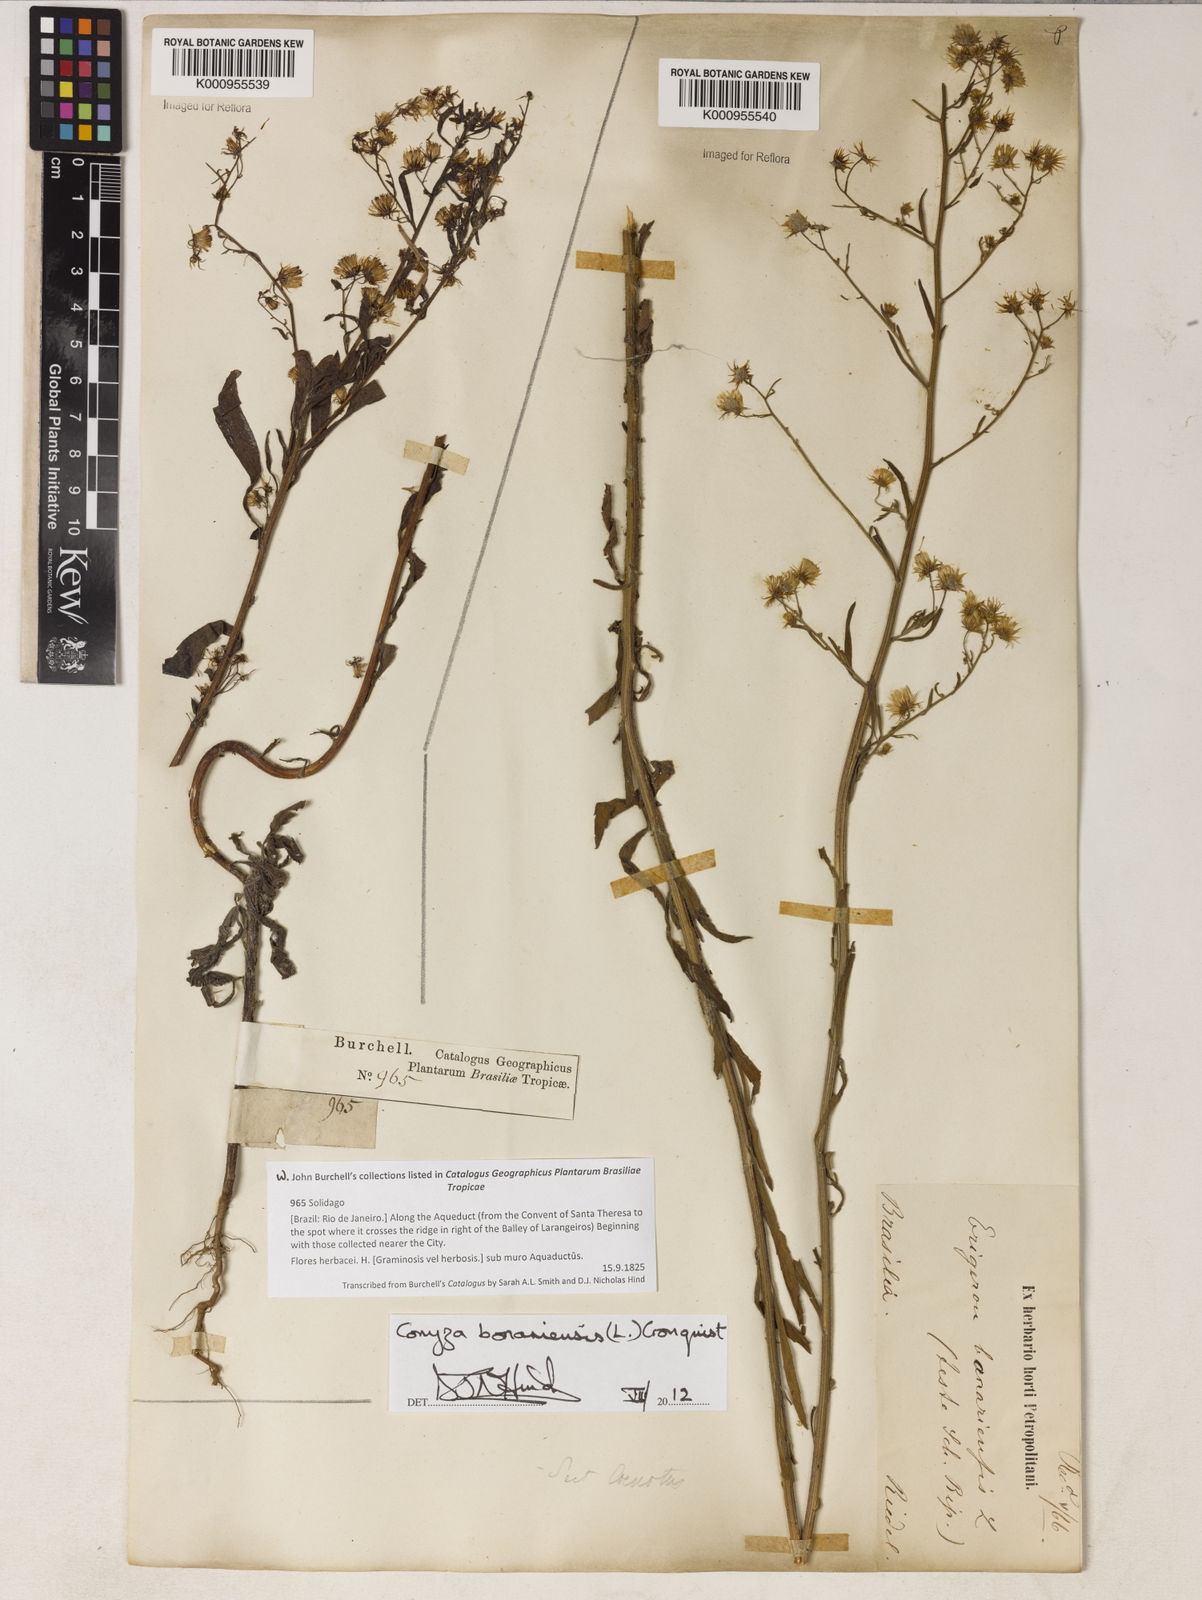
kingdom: Plantae
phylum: Tracheophyta
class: Magnoliopsida
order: Asterales
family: Asteraceae
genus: Erigeron
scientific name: Erigeron bonariensis
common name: Argentine fleabane
